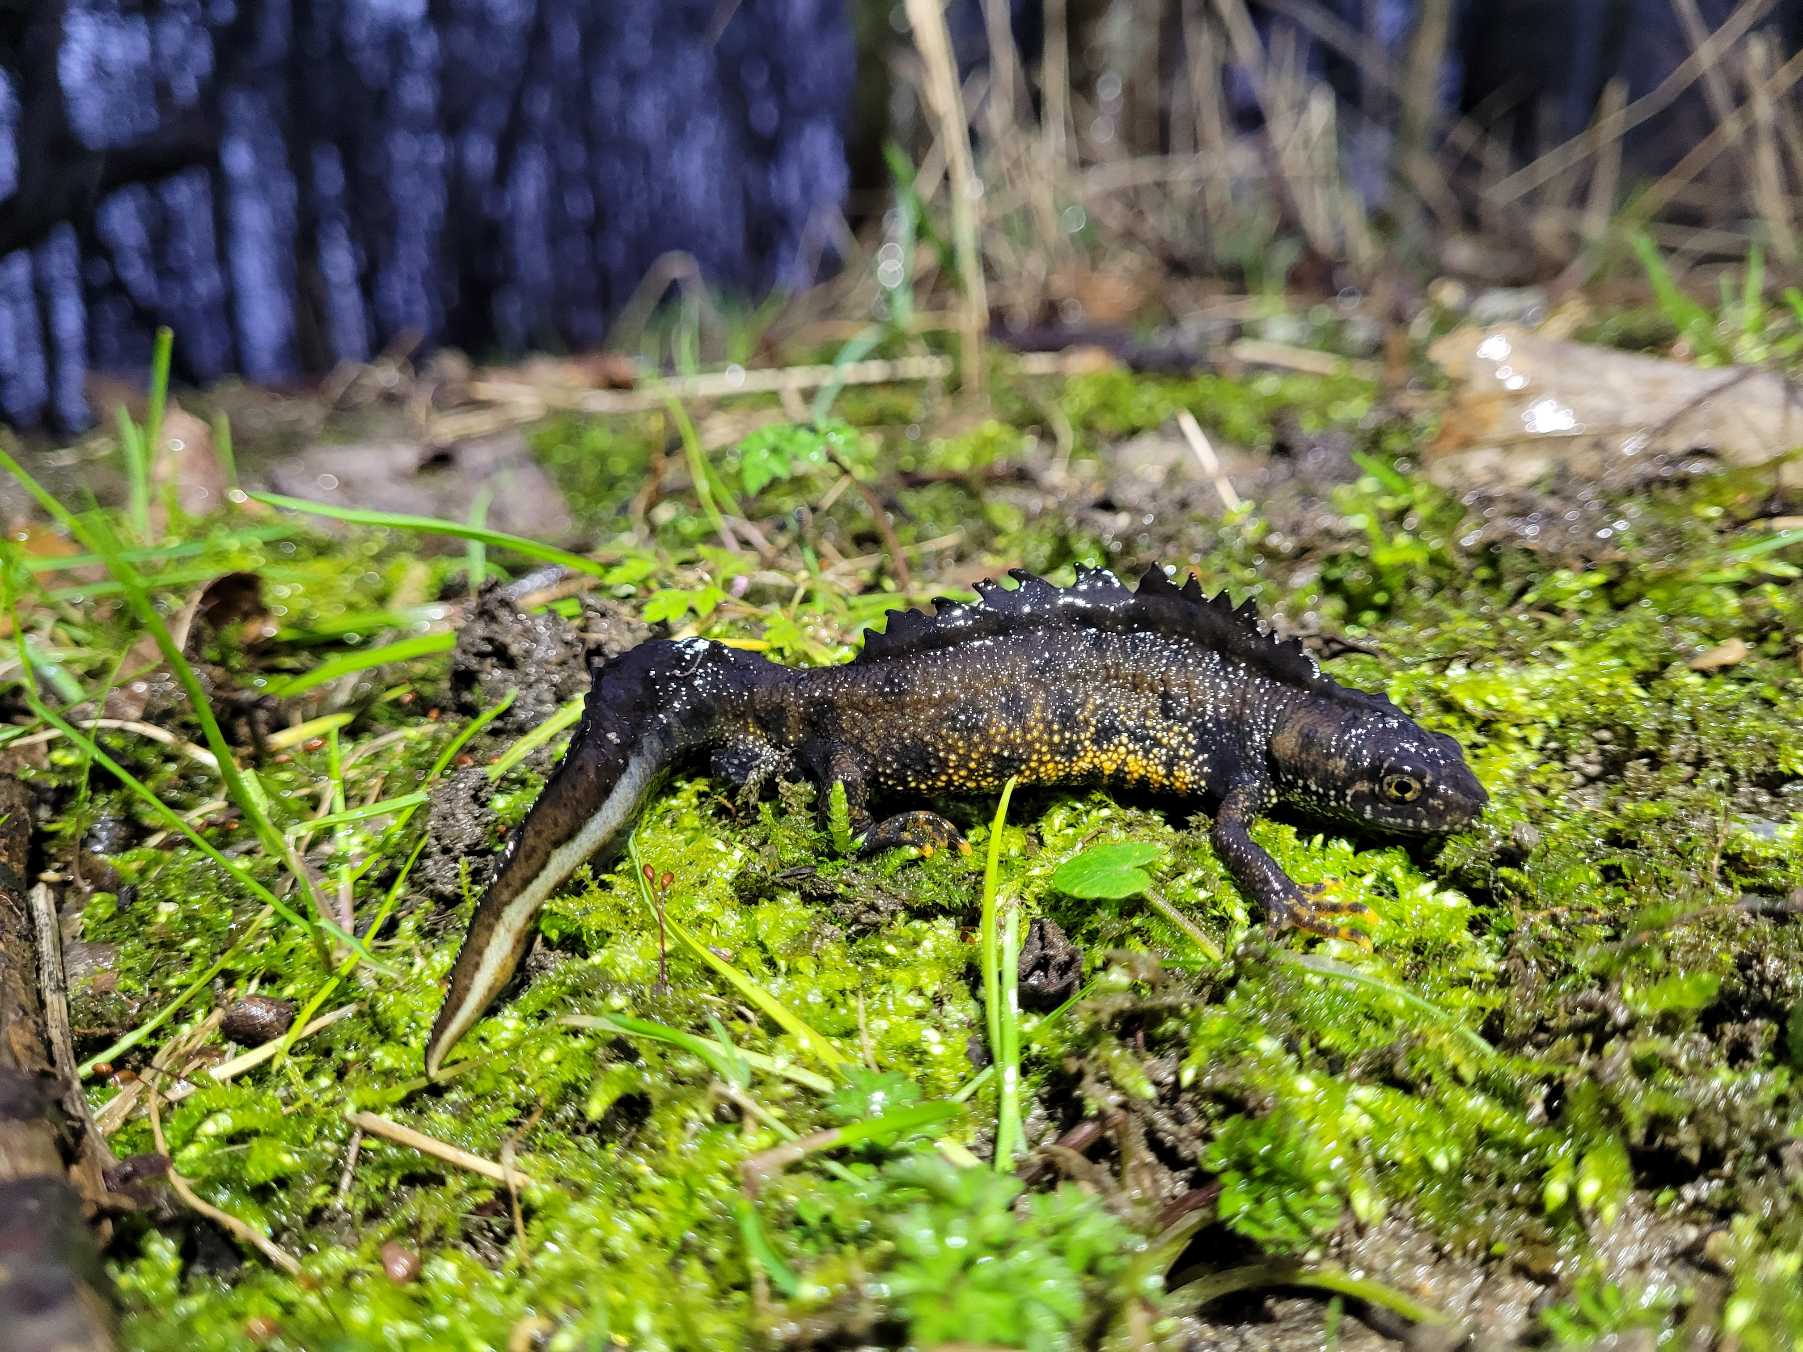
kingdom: Animalia
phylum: Chordata
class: Amphibia
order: Caudata
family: Salamandridae
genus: Triturus
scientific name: Triturus cristatus
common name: Stor vandsalamander
